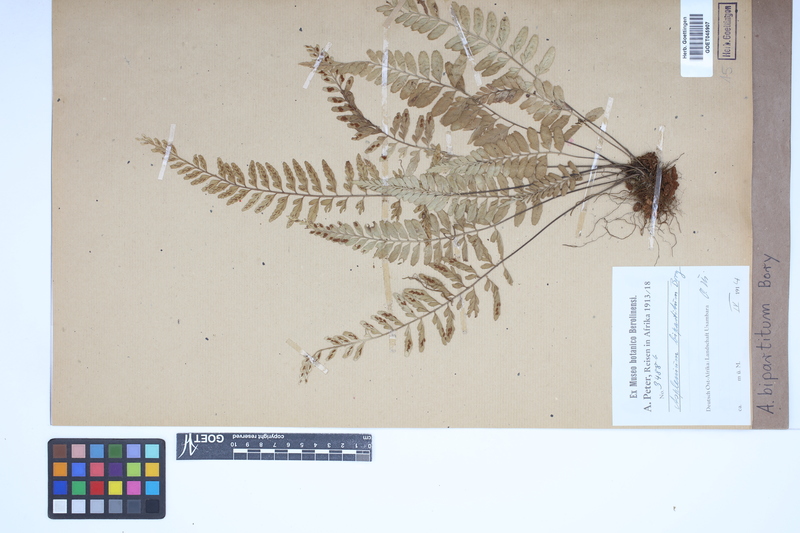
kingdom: Plantae
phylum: Tracheophyta
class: Polypodiopsida
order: Polypodiales
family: Aspleniaceae
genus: Asplenium
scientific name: Asplenium bipartitum
